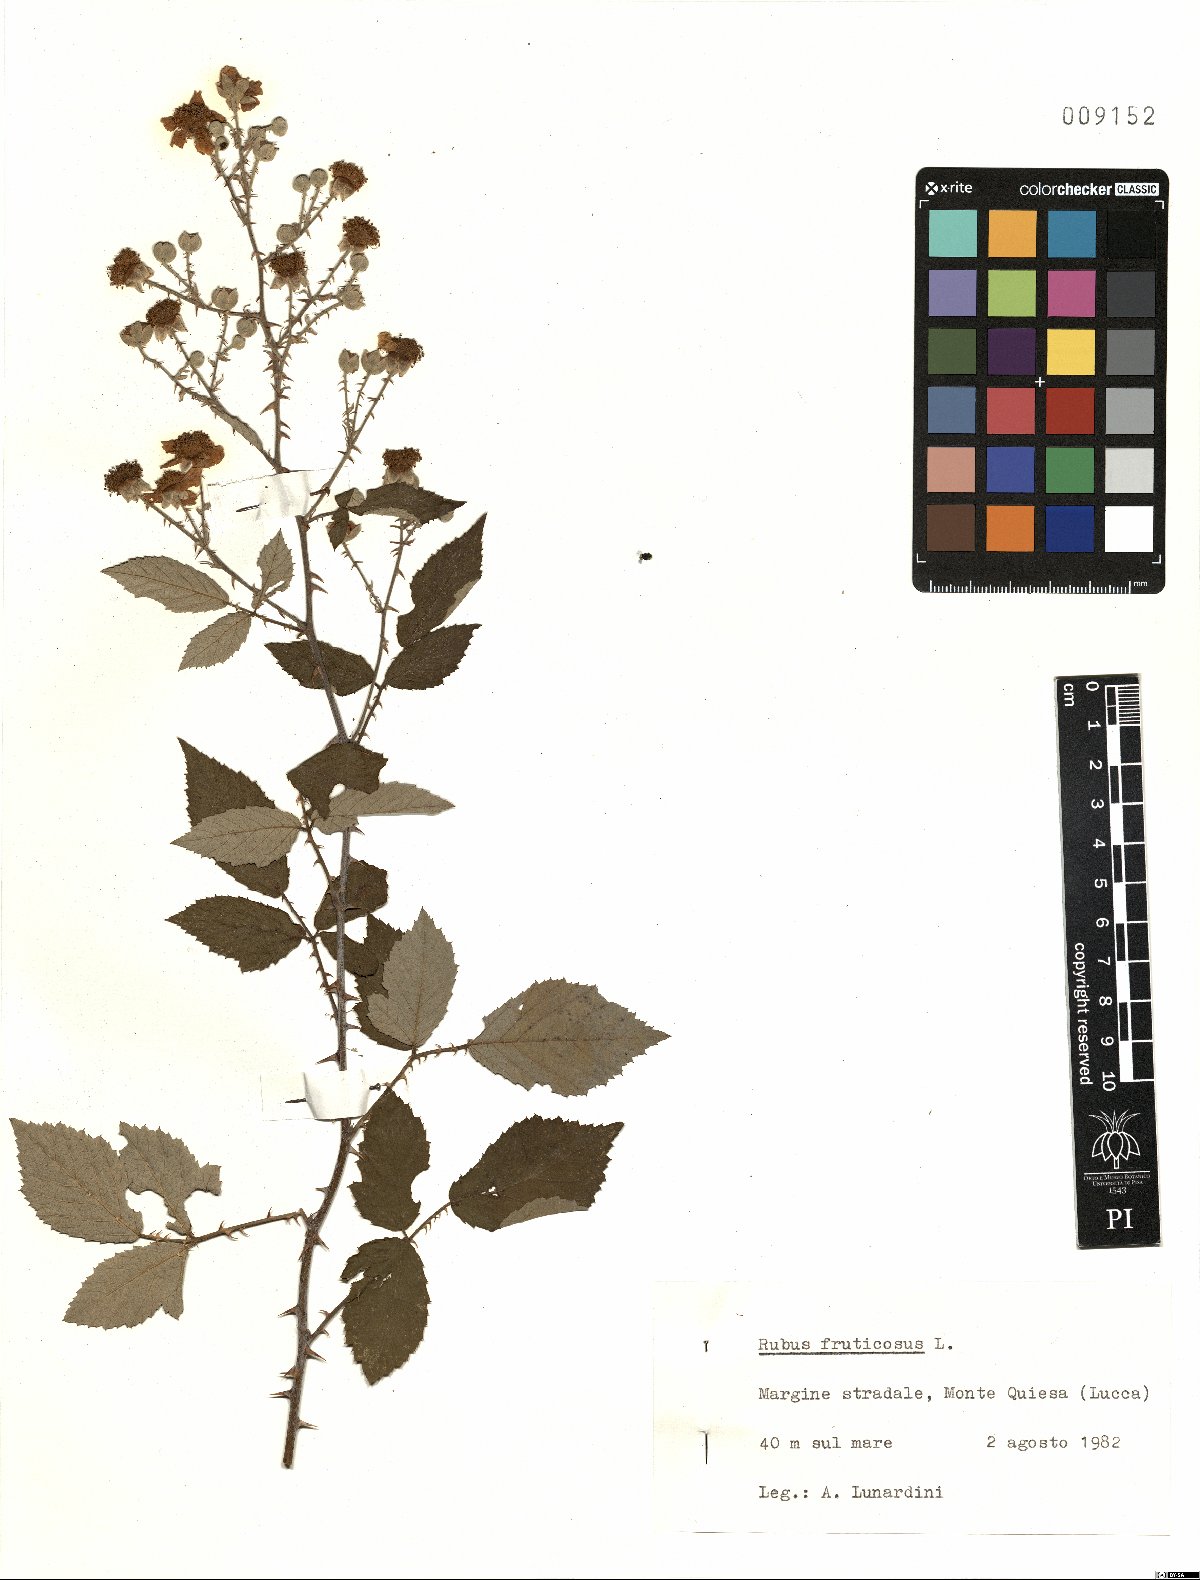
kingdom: Plantae
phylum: Tracheophyta
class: Magnoliopsida
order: Rosales
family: Rosaceae
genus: Rubus
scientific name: Rubus fruticosus
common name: Blackberry, bramble
